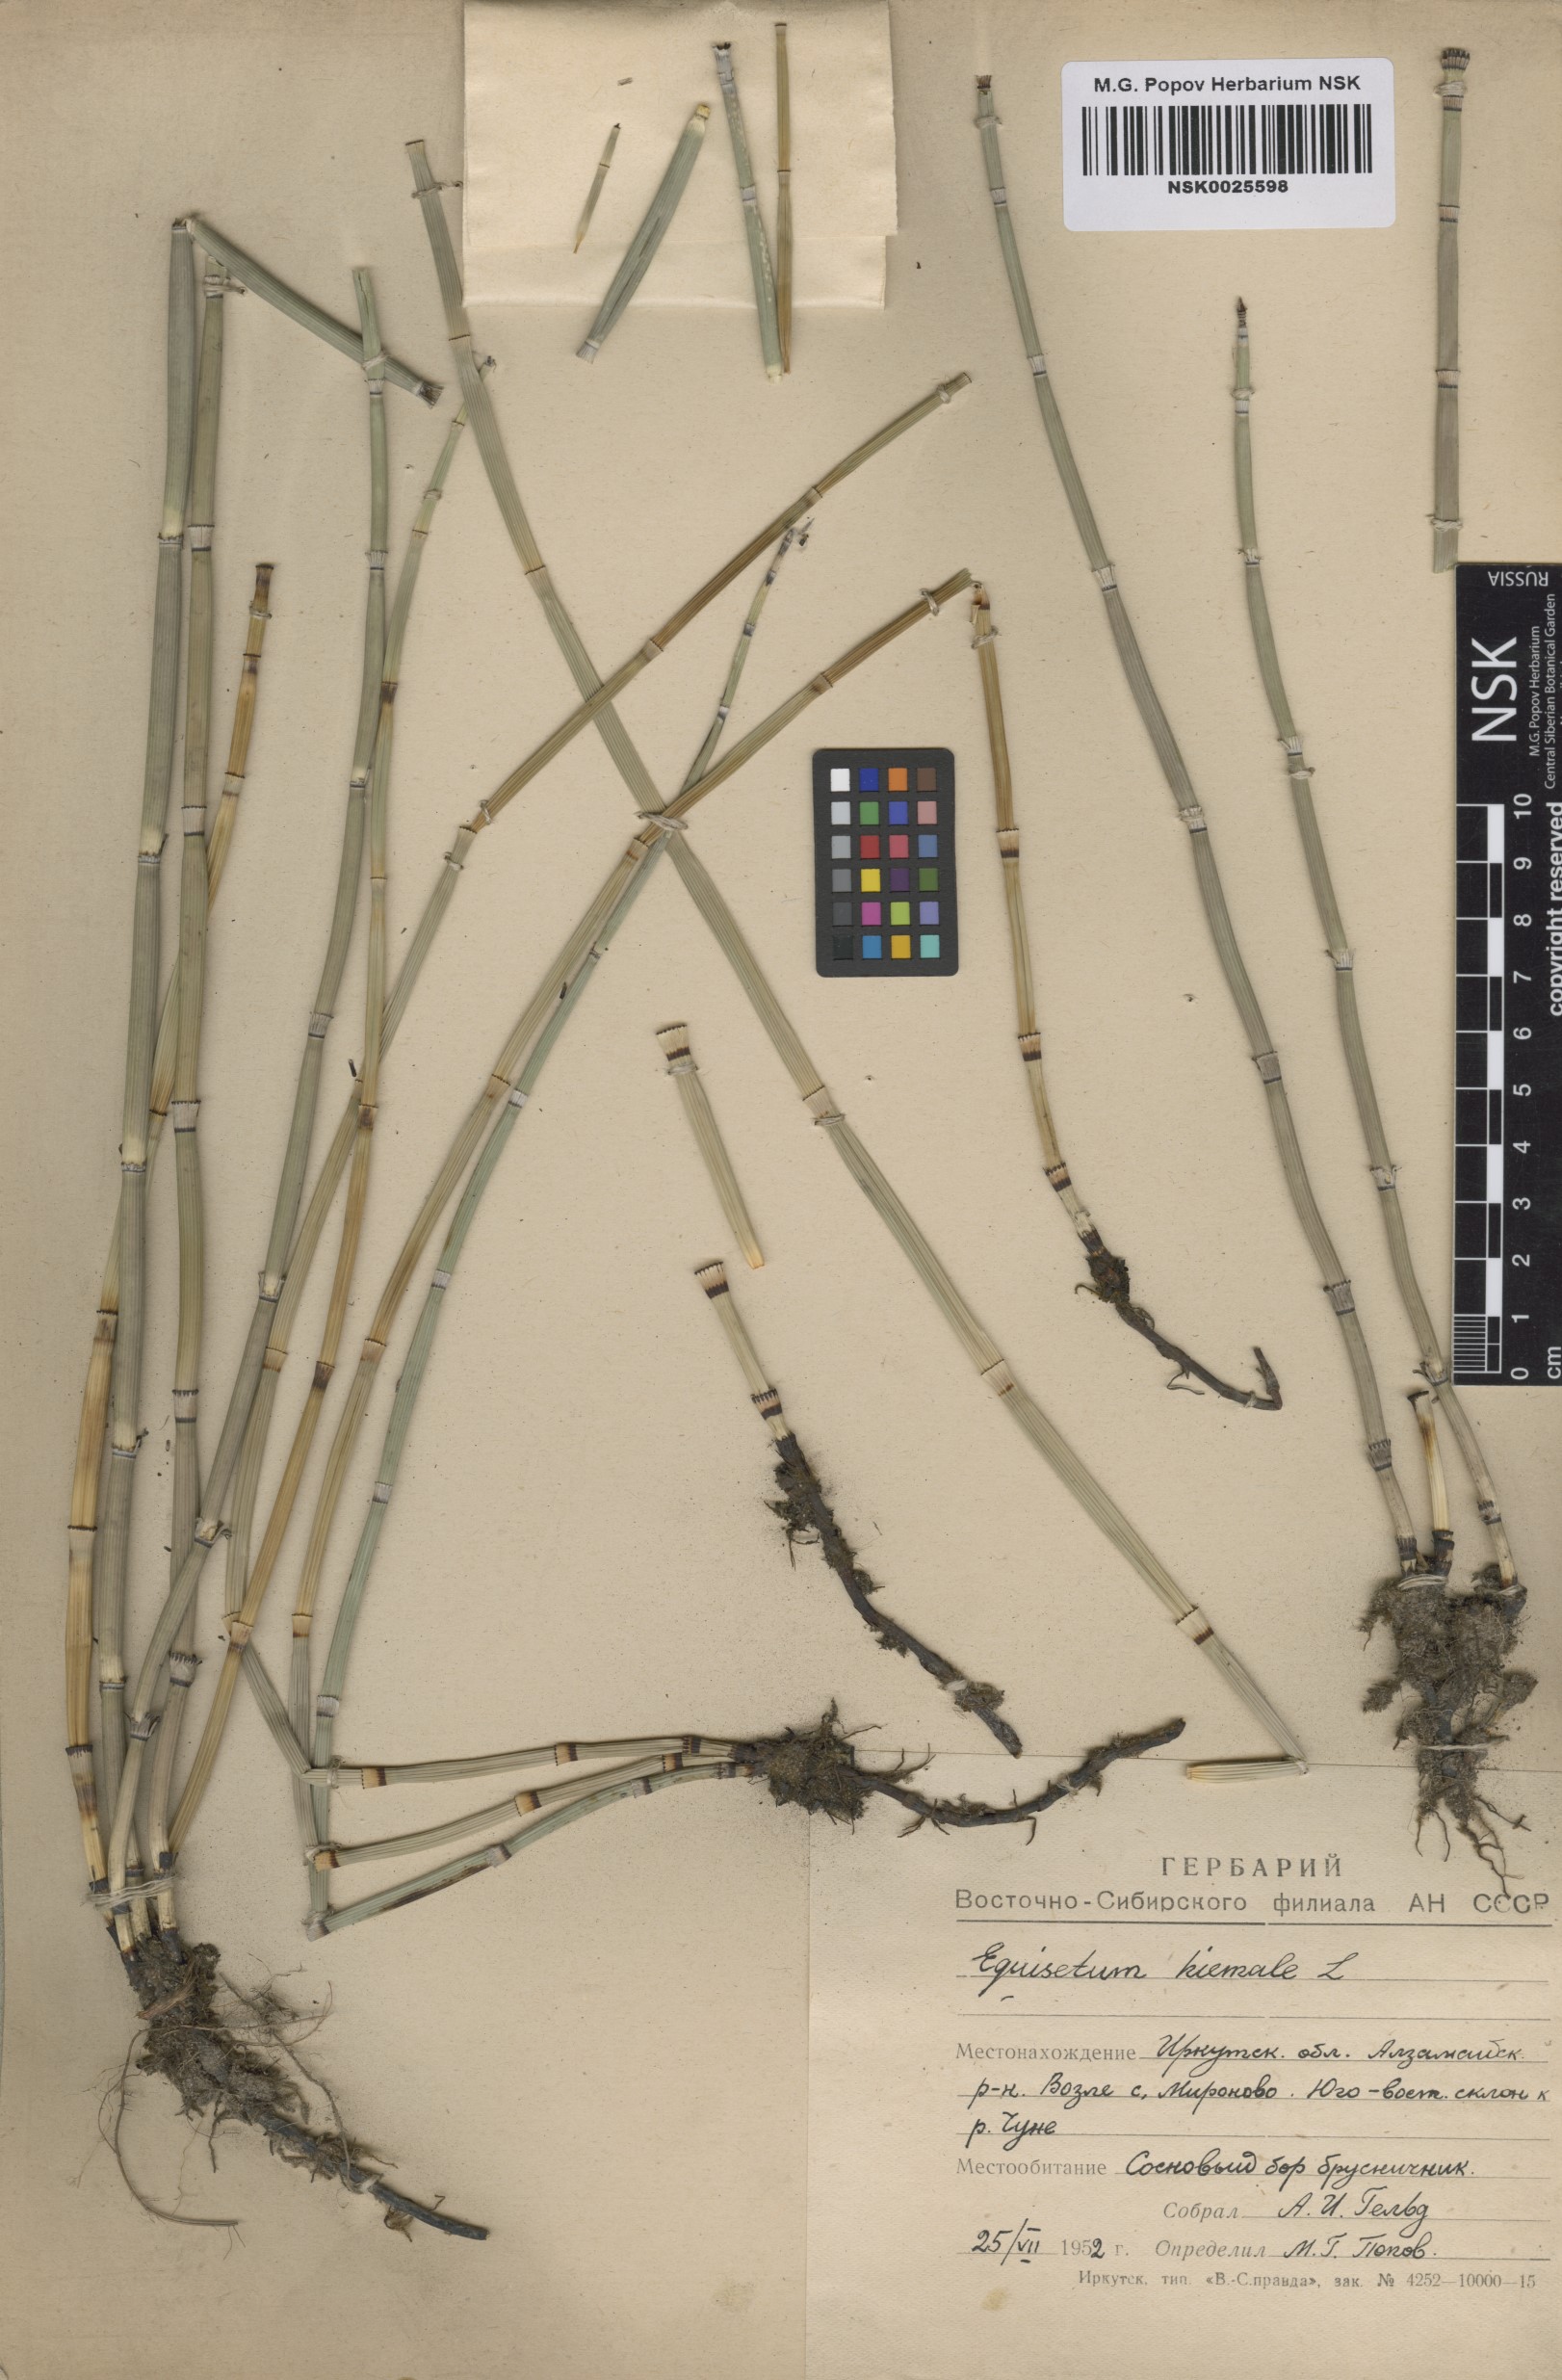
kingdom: Plantae
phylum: Tracheophyta
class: Polypodiopsida
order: Equisetales
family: Equisetaceae
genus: Equisetum
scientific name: Equisetum hyemale
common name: Rough horsetail
